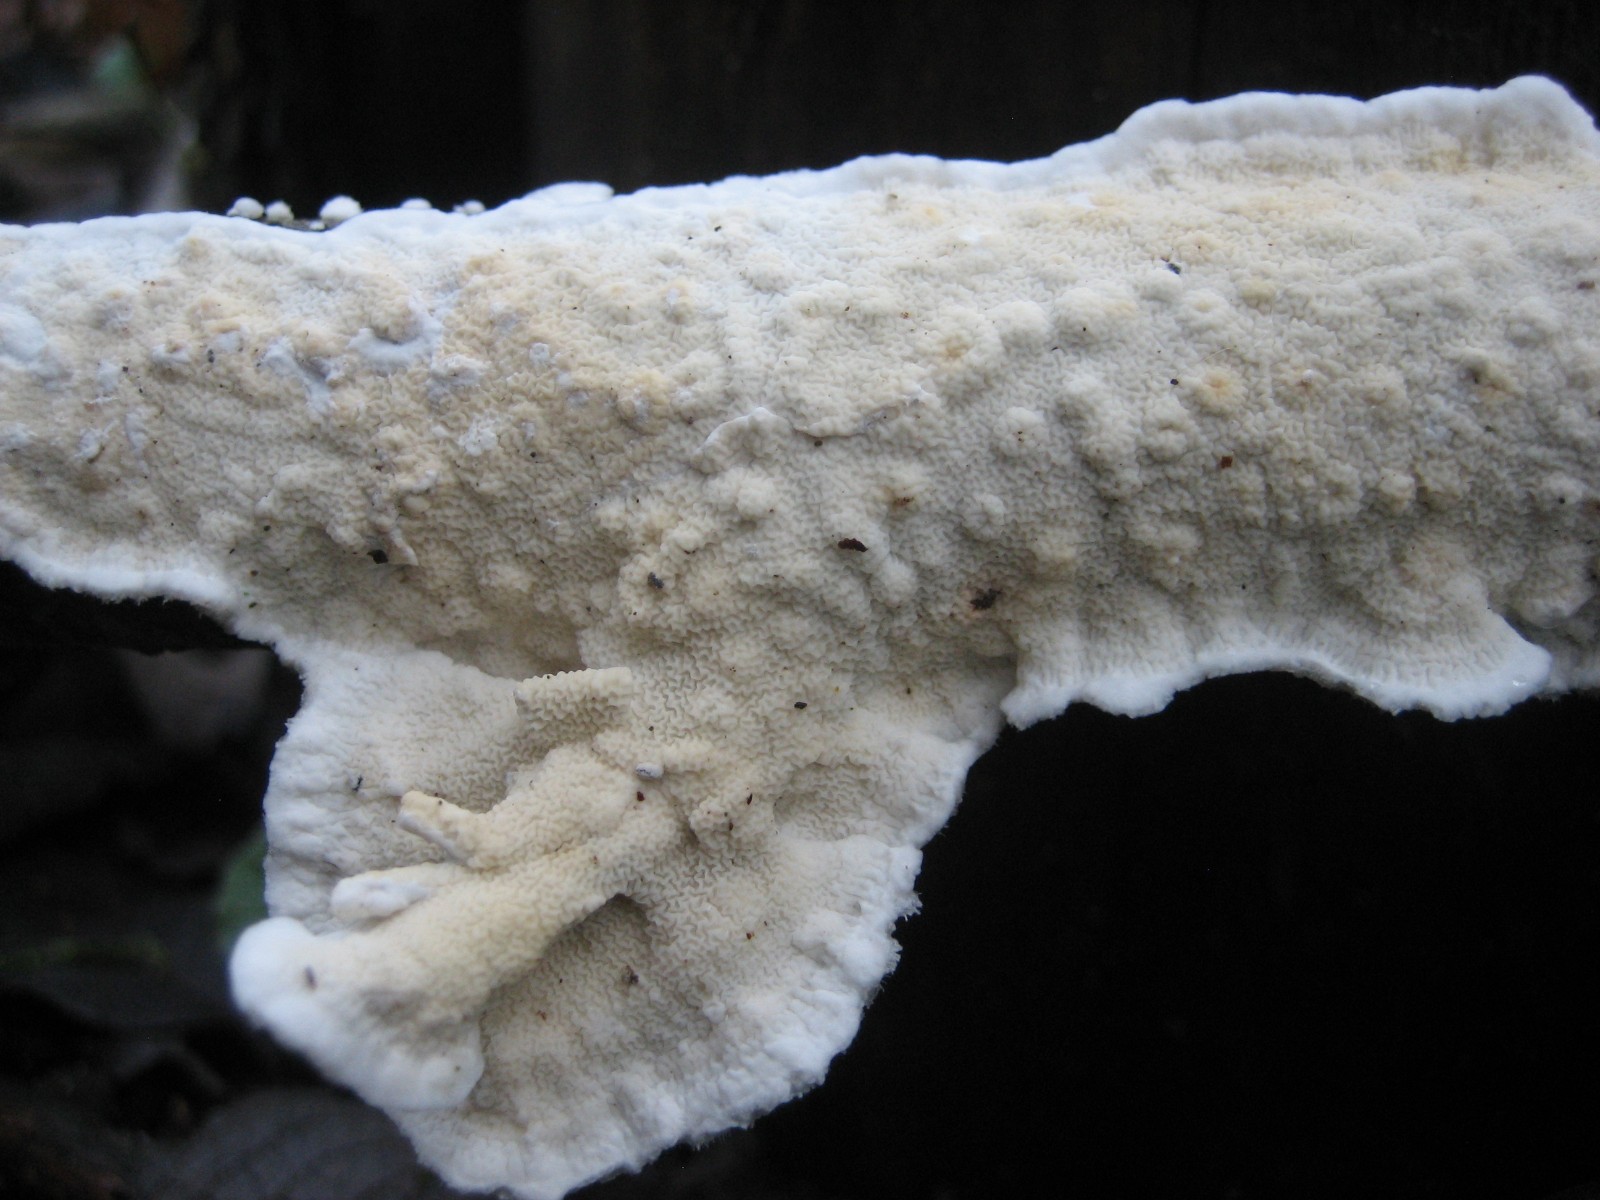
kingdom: Fungi
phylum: Basidiomycota
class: Agaricomycetes
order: Polyporales
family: Irpicaceae
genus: Byssomerulius
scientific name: Byssomerulius corium
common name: læder-åresvamp
